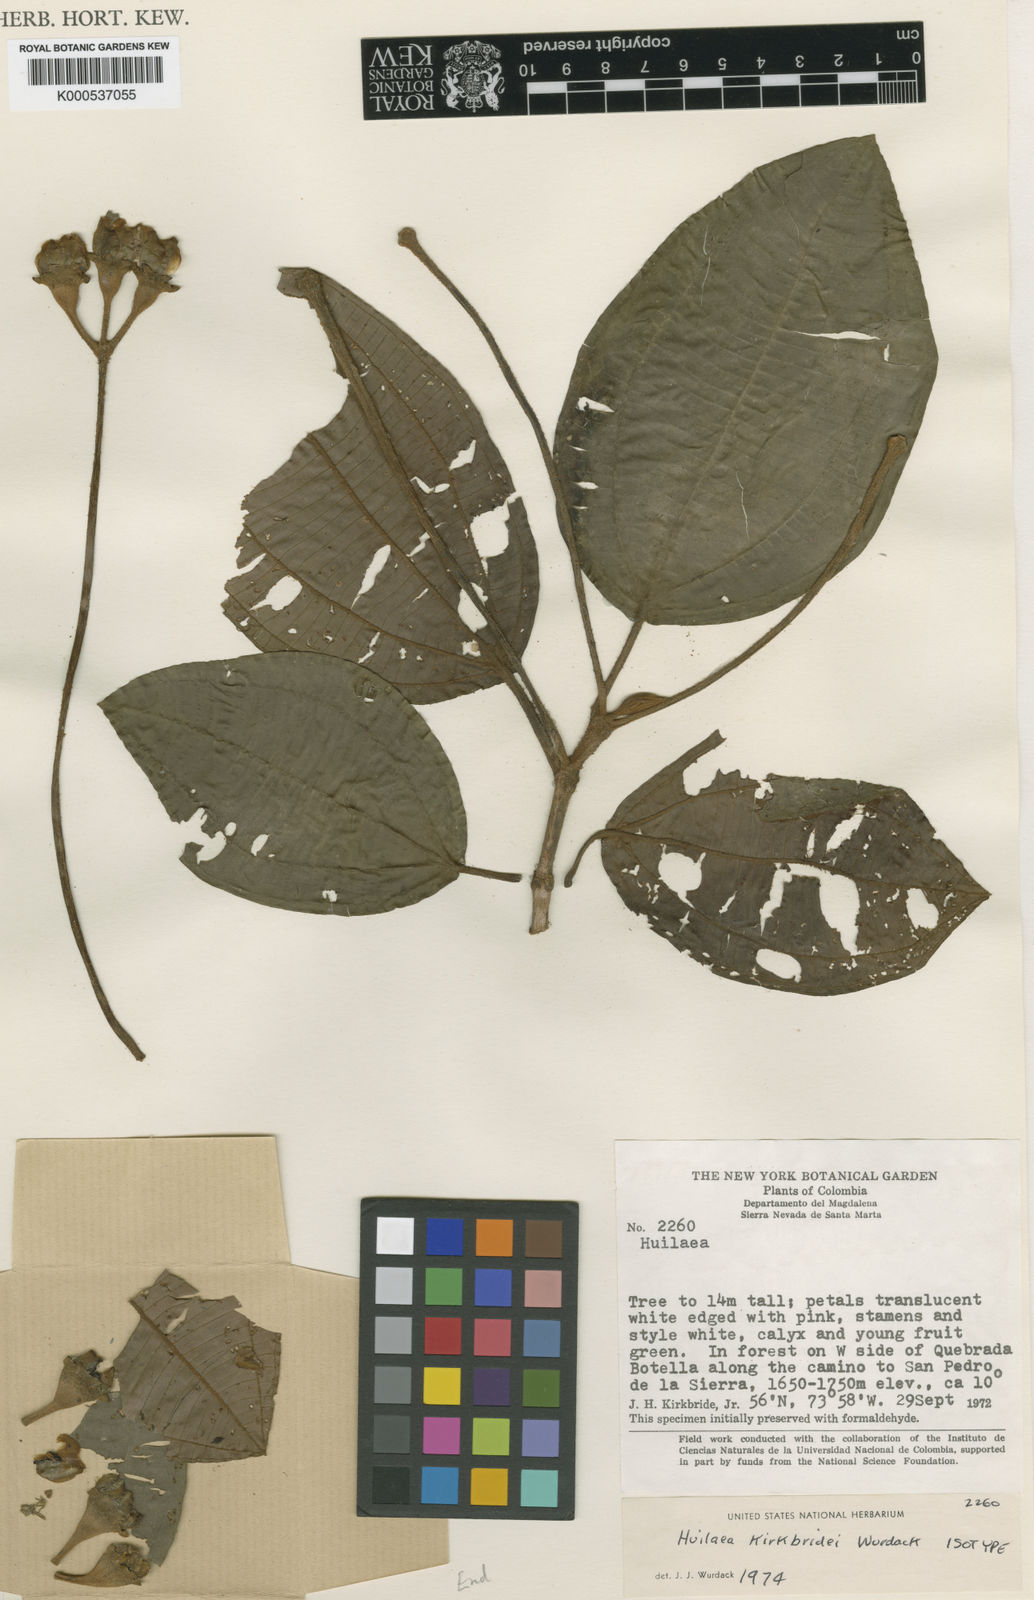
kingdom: Plantae
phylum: Tracheophyta
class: Magnoliopsida
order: Myrtales
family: Melastomataceae
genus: Chalybea
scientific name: Chalybea kirkbridei
